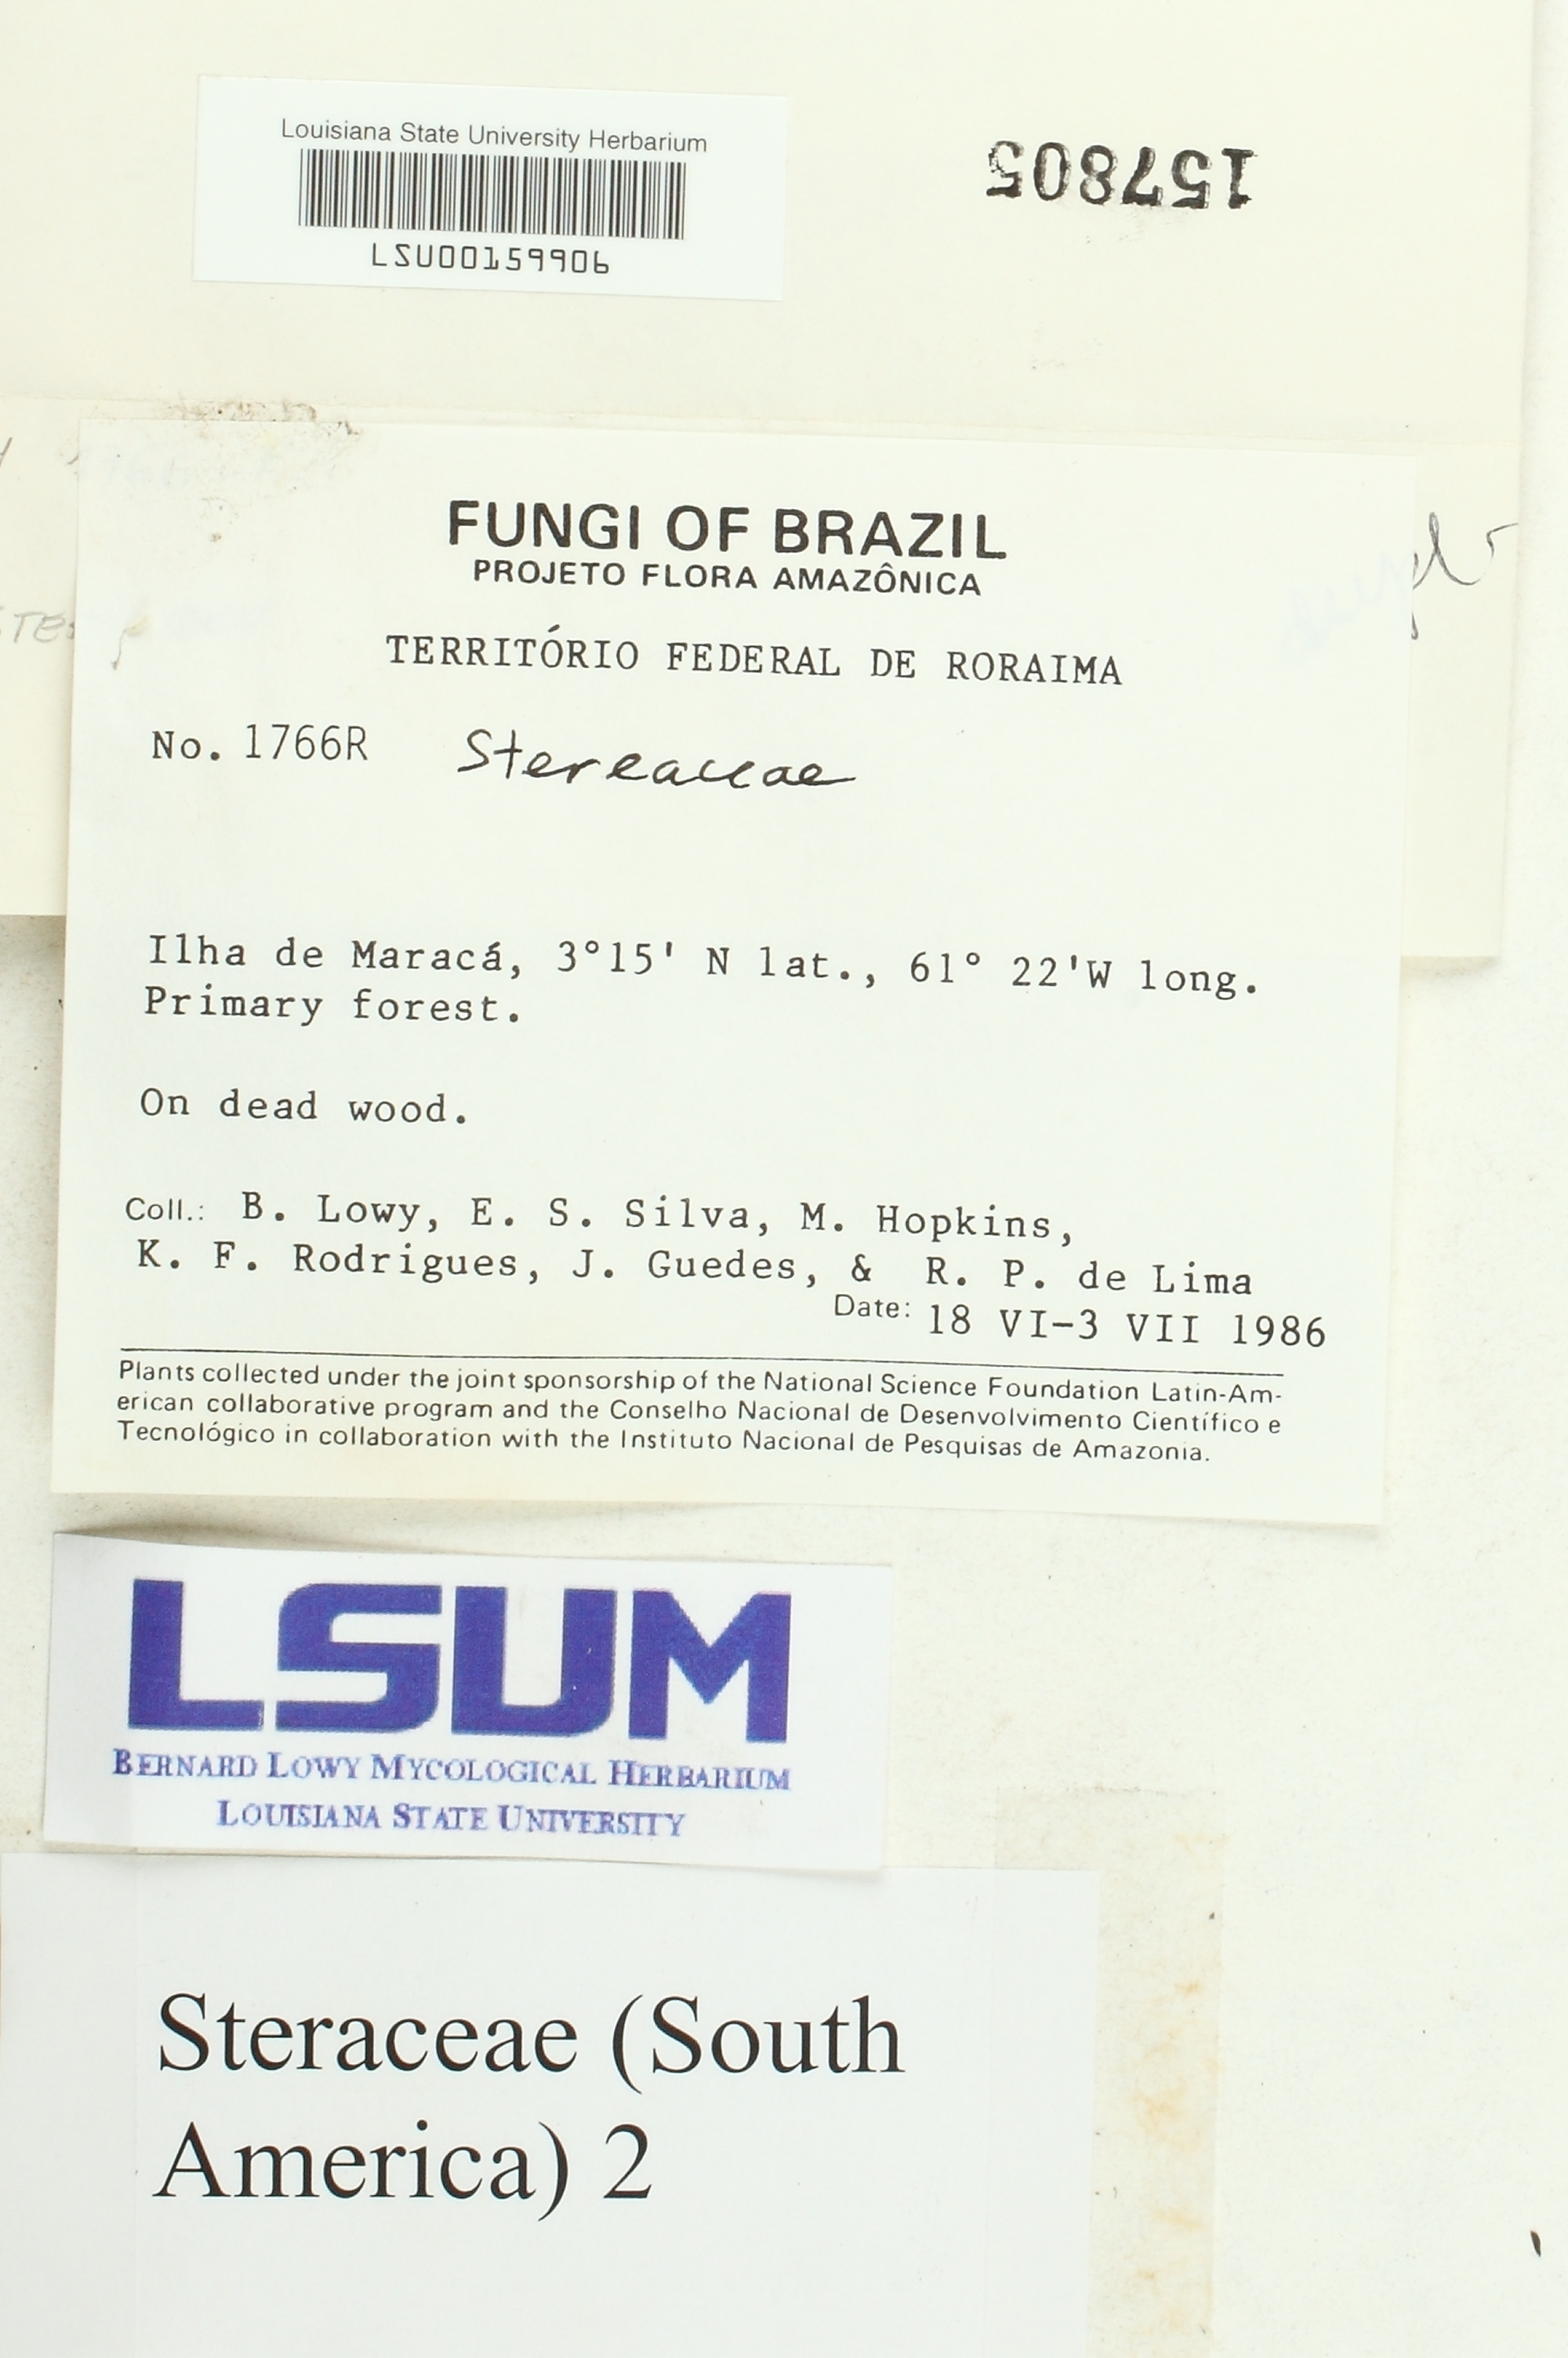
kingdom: Fungi
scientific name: Fungi
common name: Fungi
